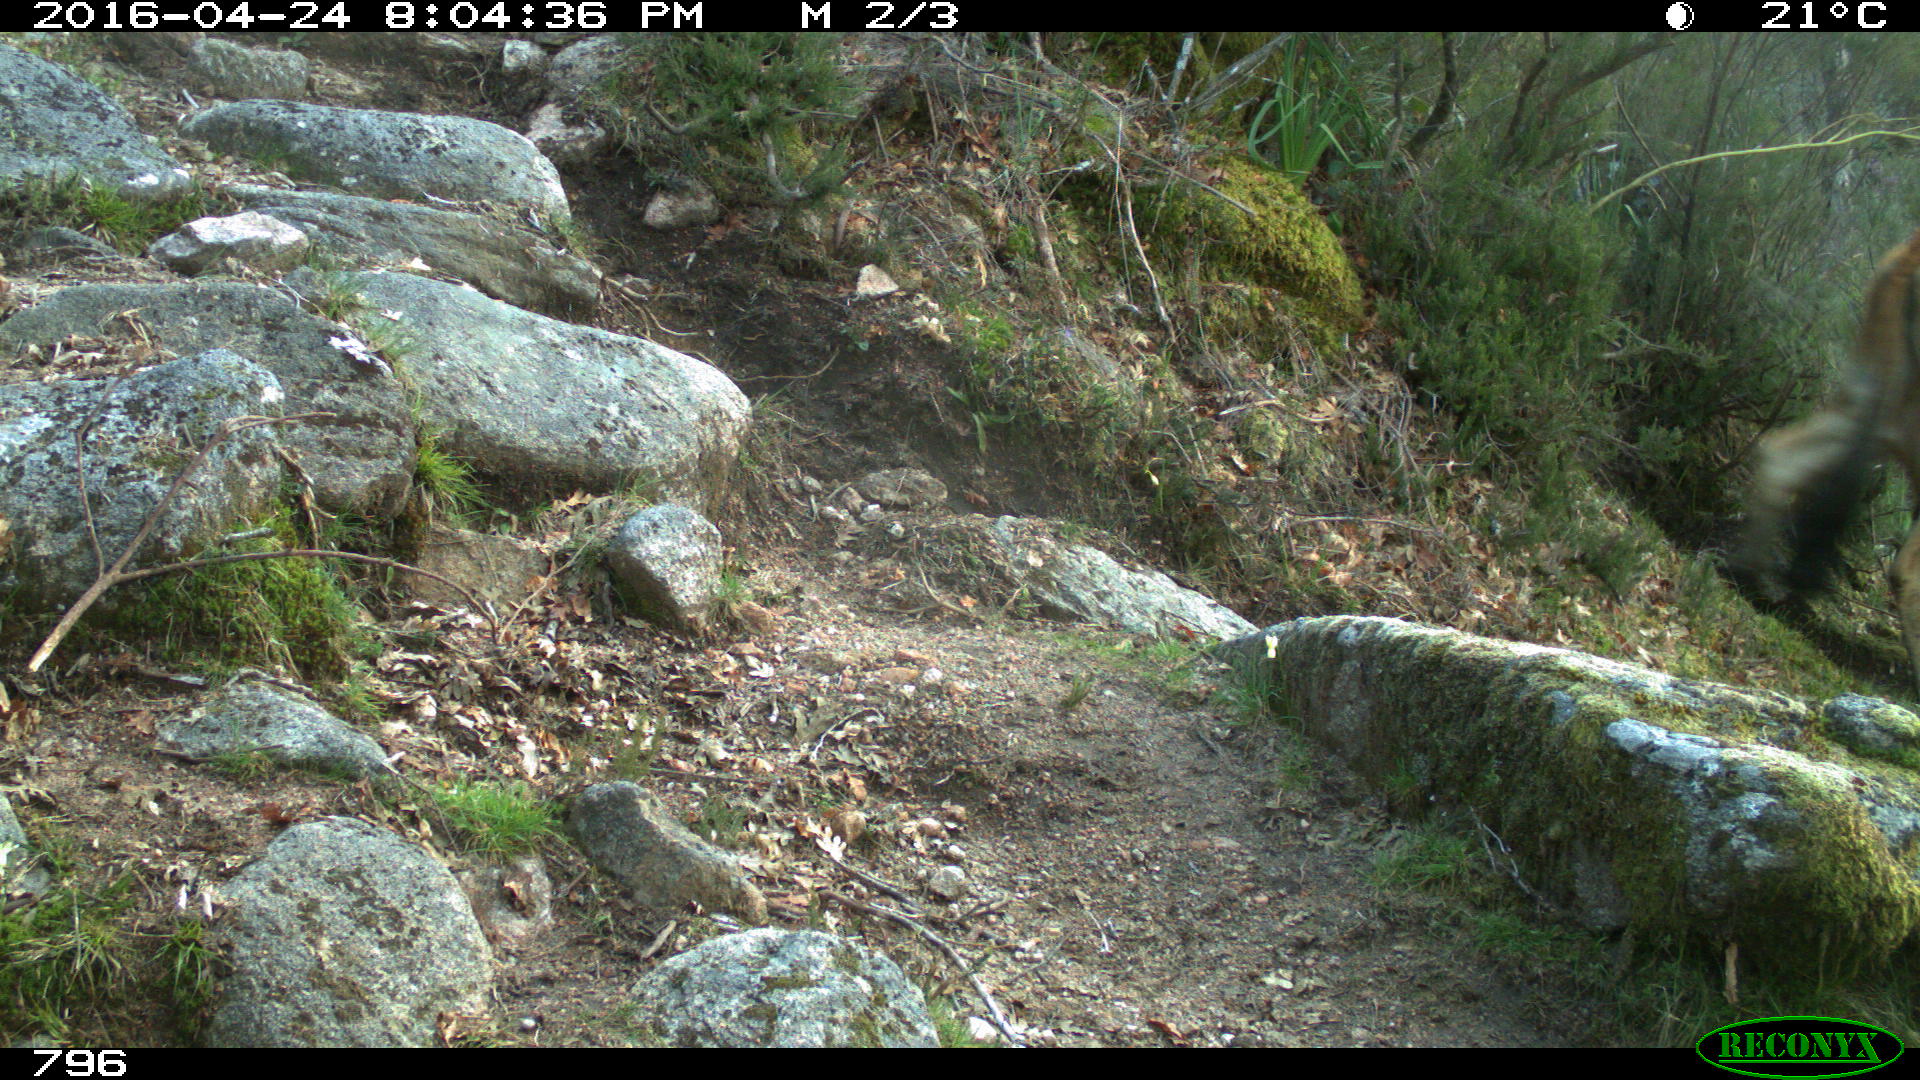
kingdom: Animalia
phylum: Chordata
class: Mammalia
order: Artiodactyla
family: Bovidae
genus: Bos
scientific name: Bos taurus
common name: Domesticated cattle
